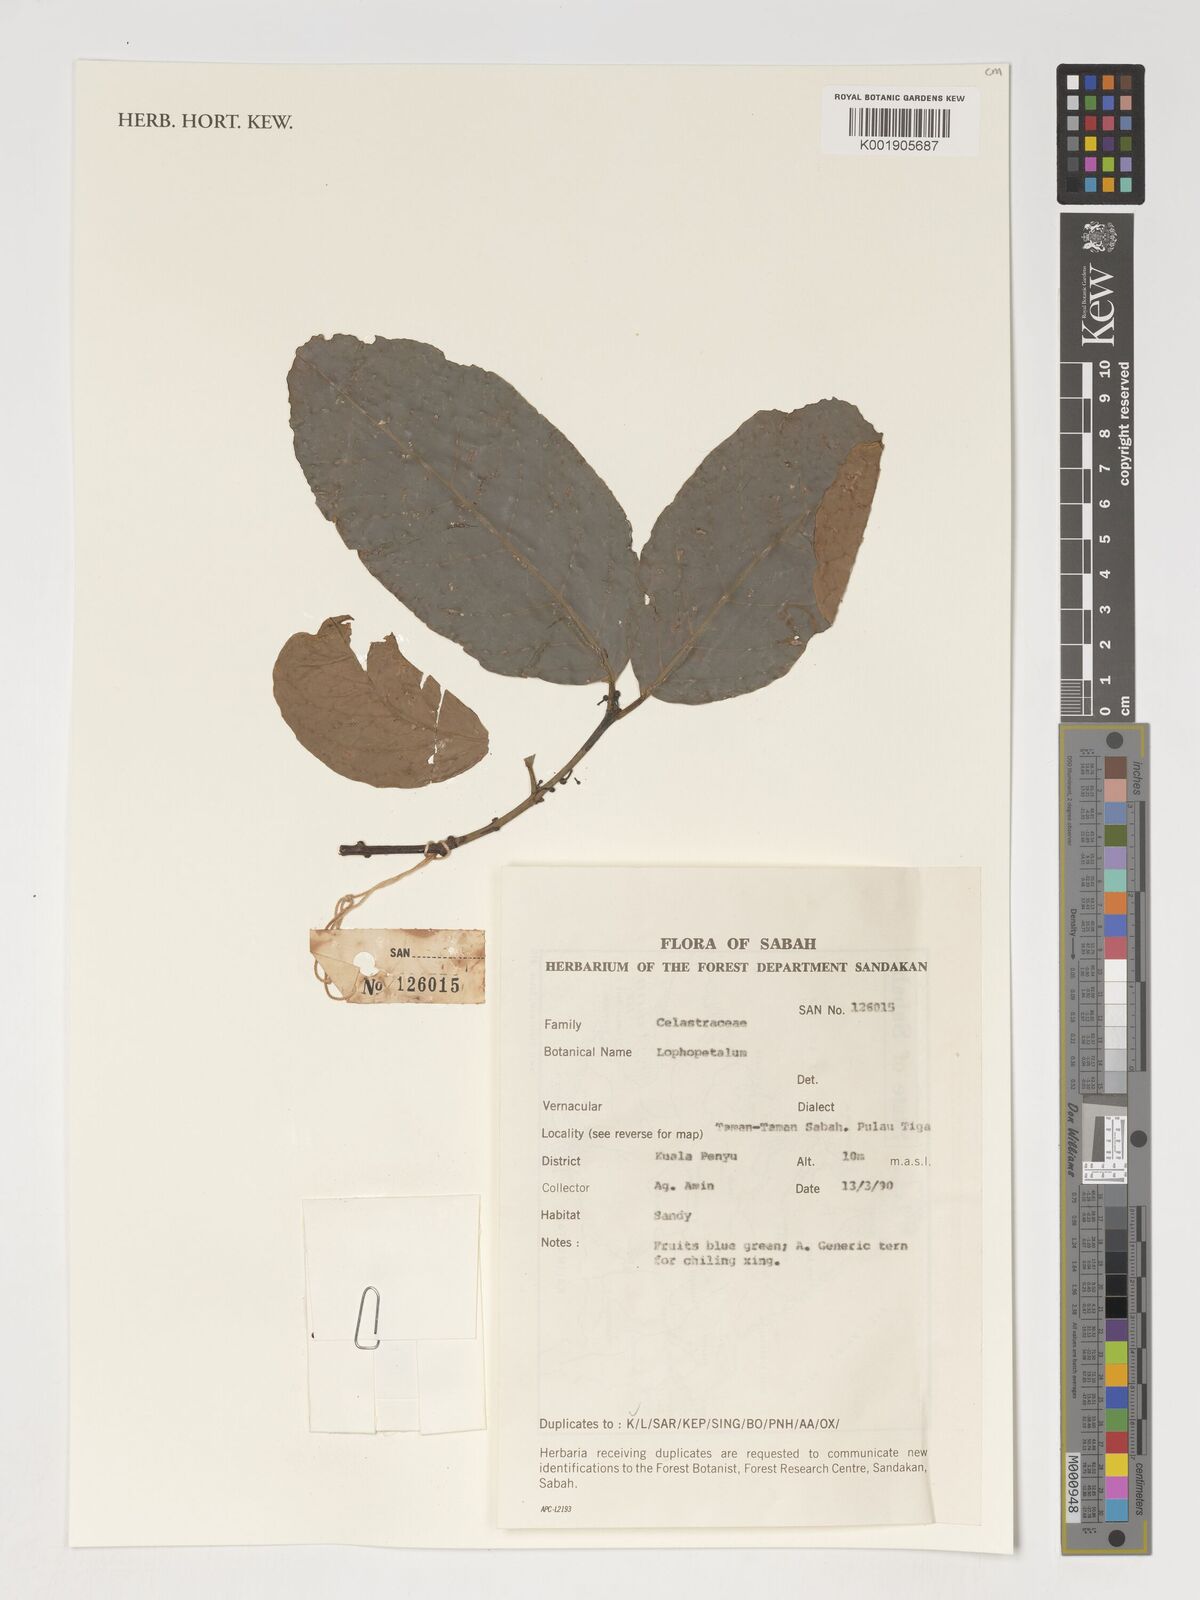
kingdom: Plantae
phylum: Tracheophyta
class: Magnoliopsida
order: Celastrales
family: Celastraceae
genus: Lophopetalum
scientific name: Lophopetalum
